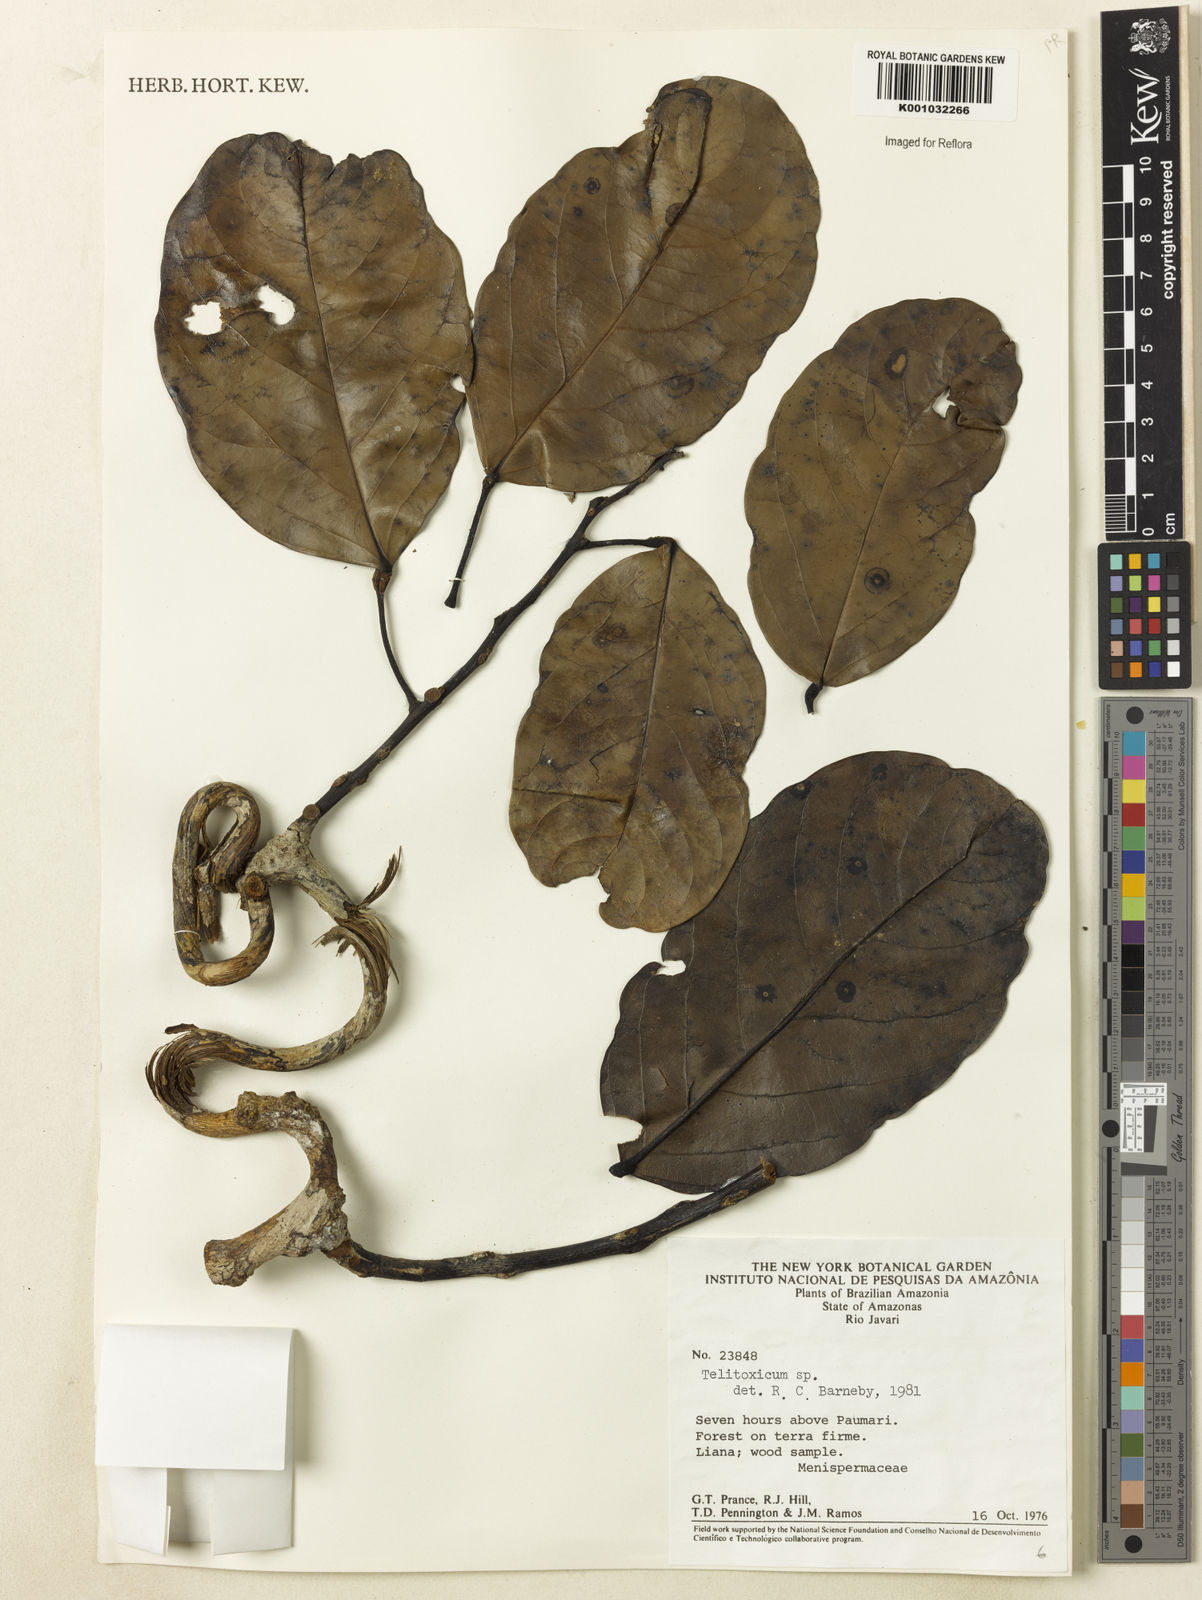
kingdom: Plantae
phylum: Tracheophyta
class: Magnoliopsida
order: Ranunculales
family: Menispermaceae
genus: Telitoxicum
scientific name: Telitoxicum
